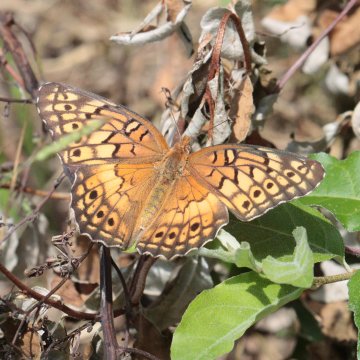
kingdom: Animalia
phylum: Arthropoda
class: Insecta
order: Lepidoptera
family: Nymphalidae
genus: Dione
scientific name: Dione vanillae
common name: Gulf Fritillary
